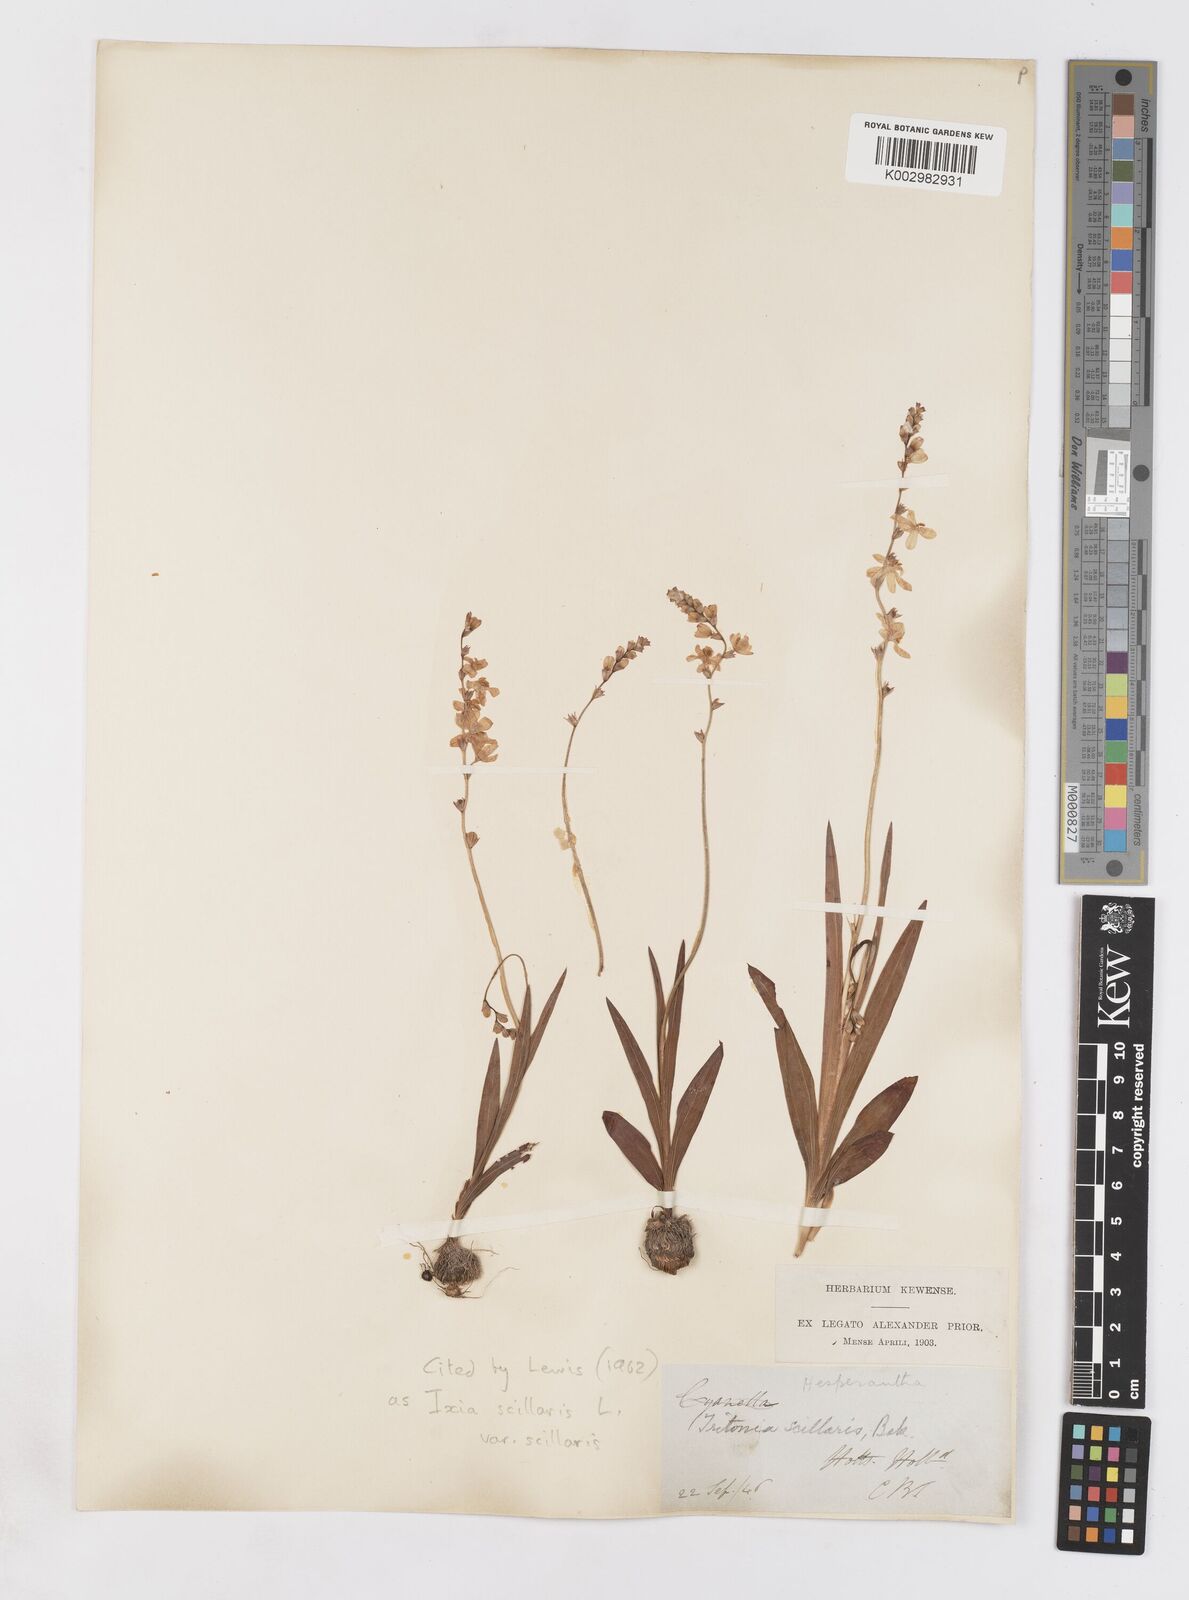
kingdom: Plantae
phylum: Tracheophyta
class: Liliopsida
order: Asparagales
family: Iridaceae
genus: Ixia
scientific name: Ixia scillaris
